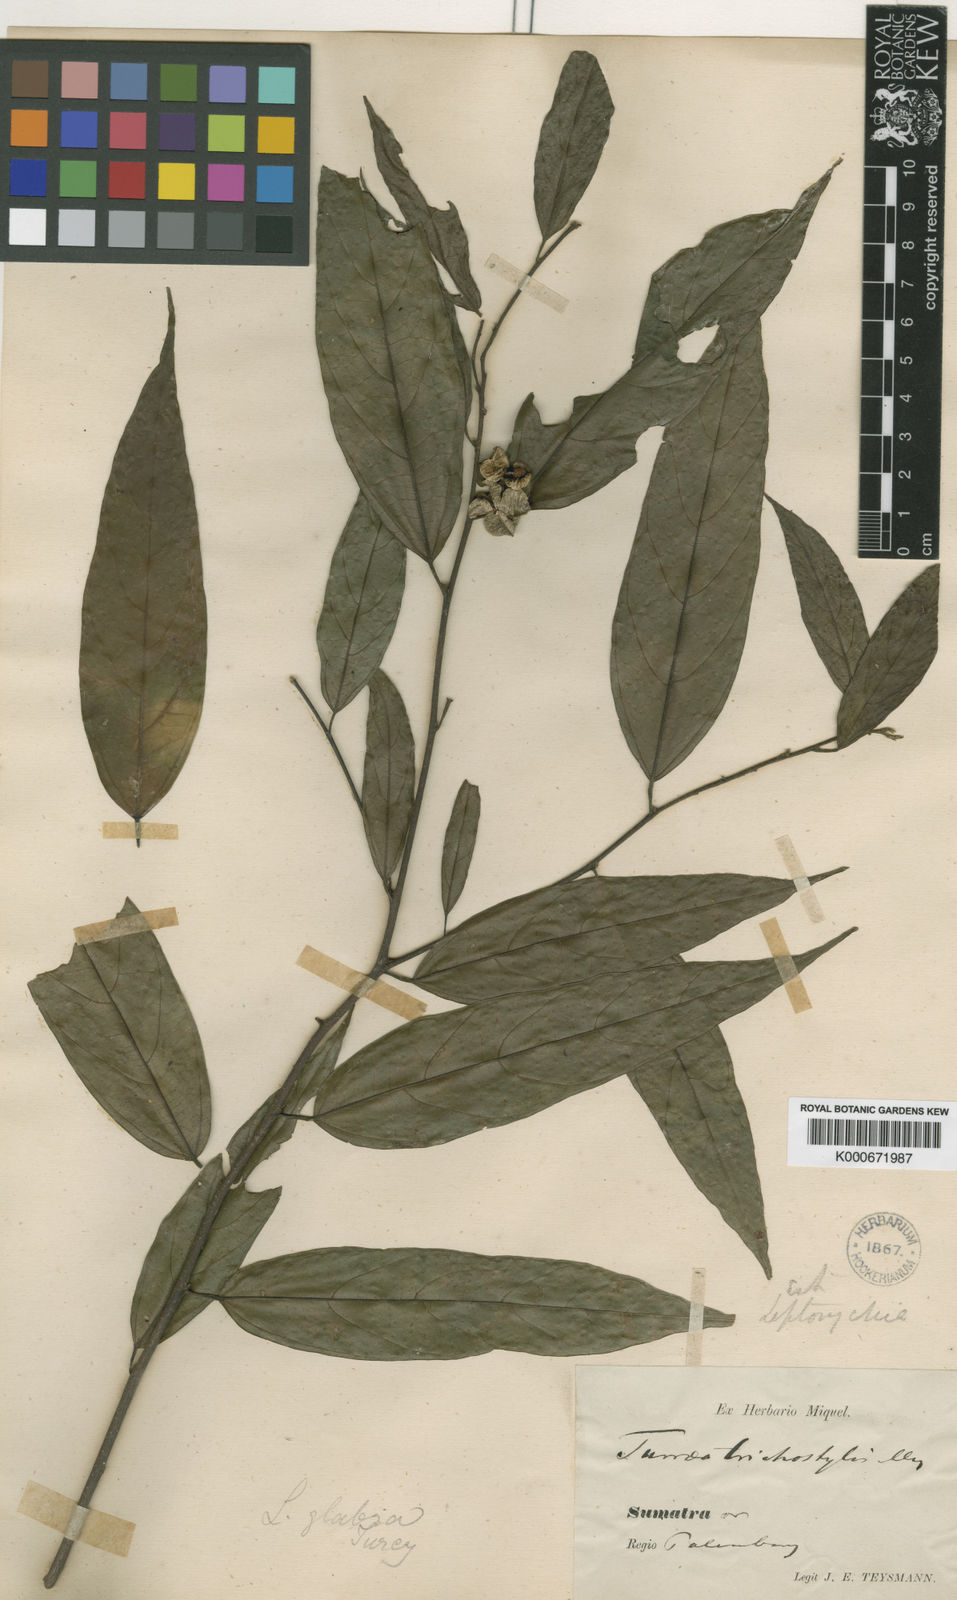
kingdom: Plantae
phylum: Tracheophyta
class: Magnoliopsida
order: Malvales
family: Malvaceae
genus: Leptonychia
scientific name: Leptonychia caudata
